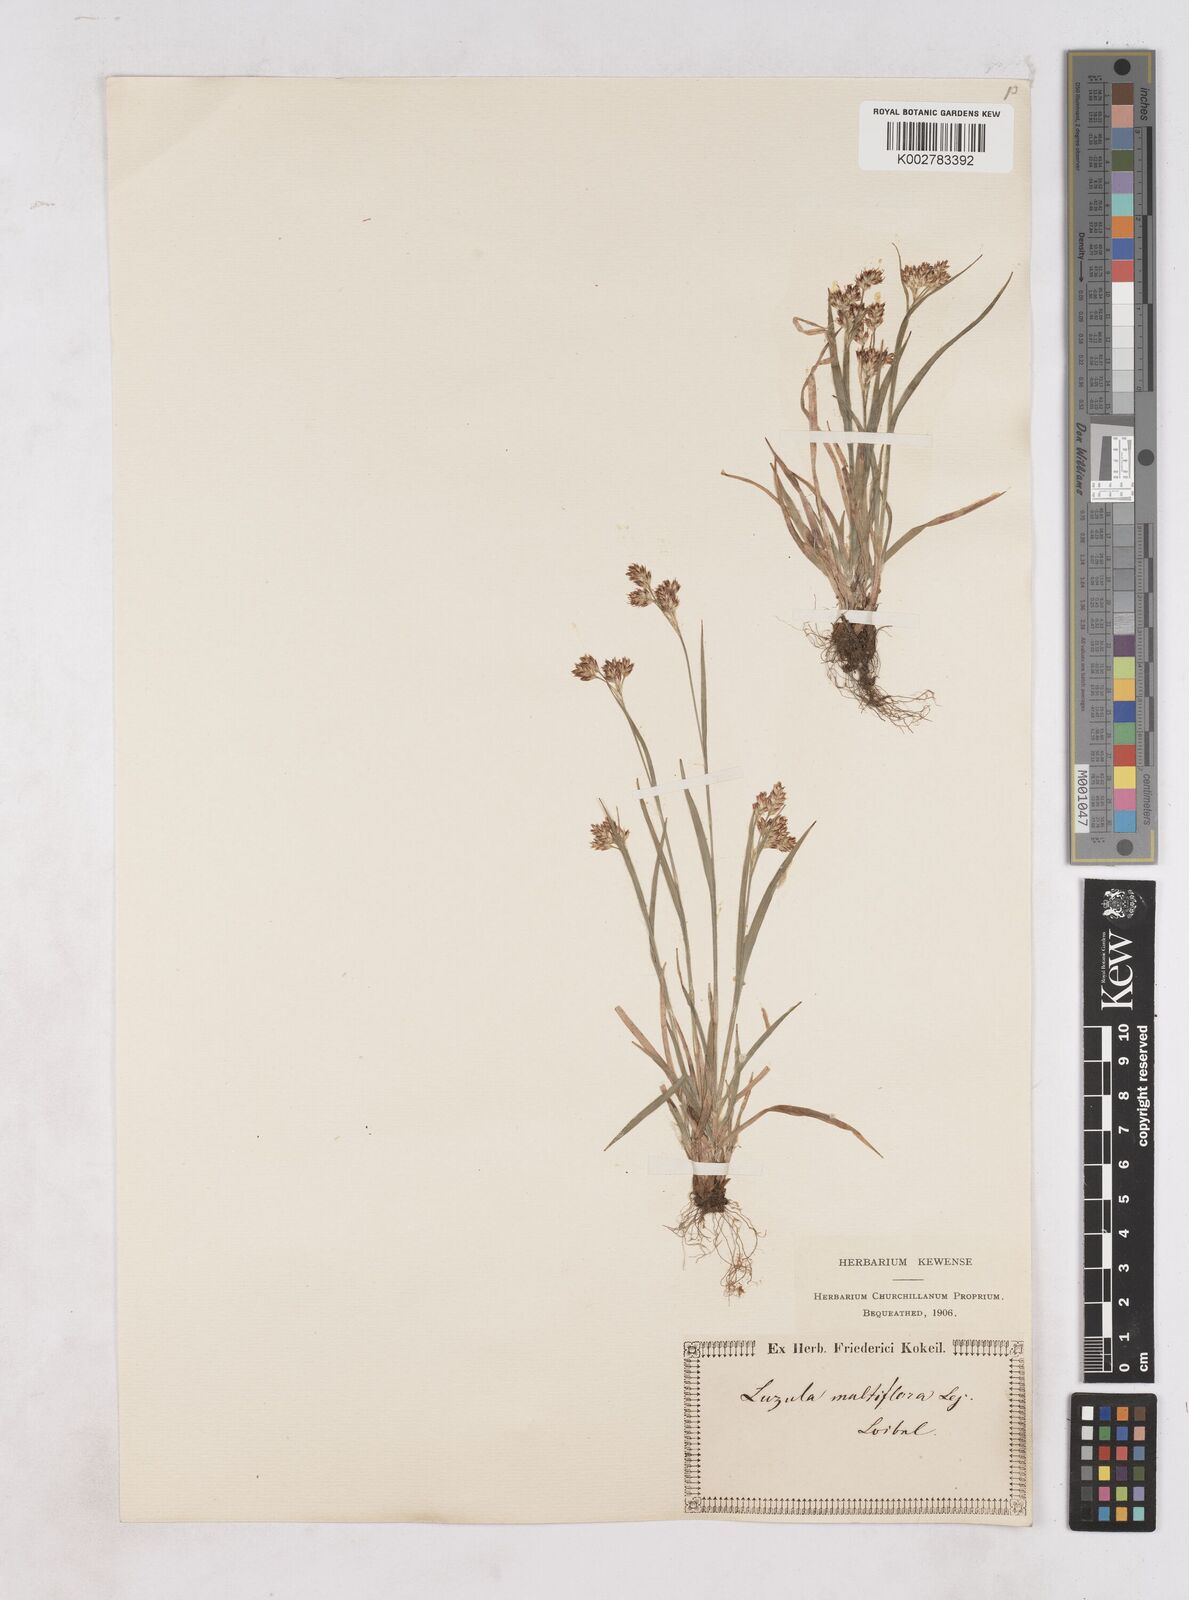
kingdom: Plantae
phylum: Tracheophyta
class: Liliopsida
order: Poales
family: Juncaceae
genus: Luzula
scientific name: Luzula multiflora
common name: Heath wood-rush
